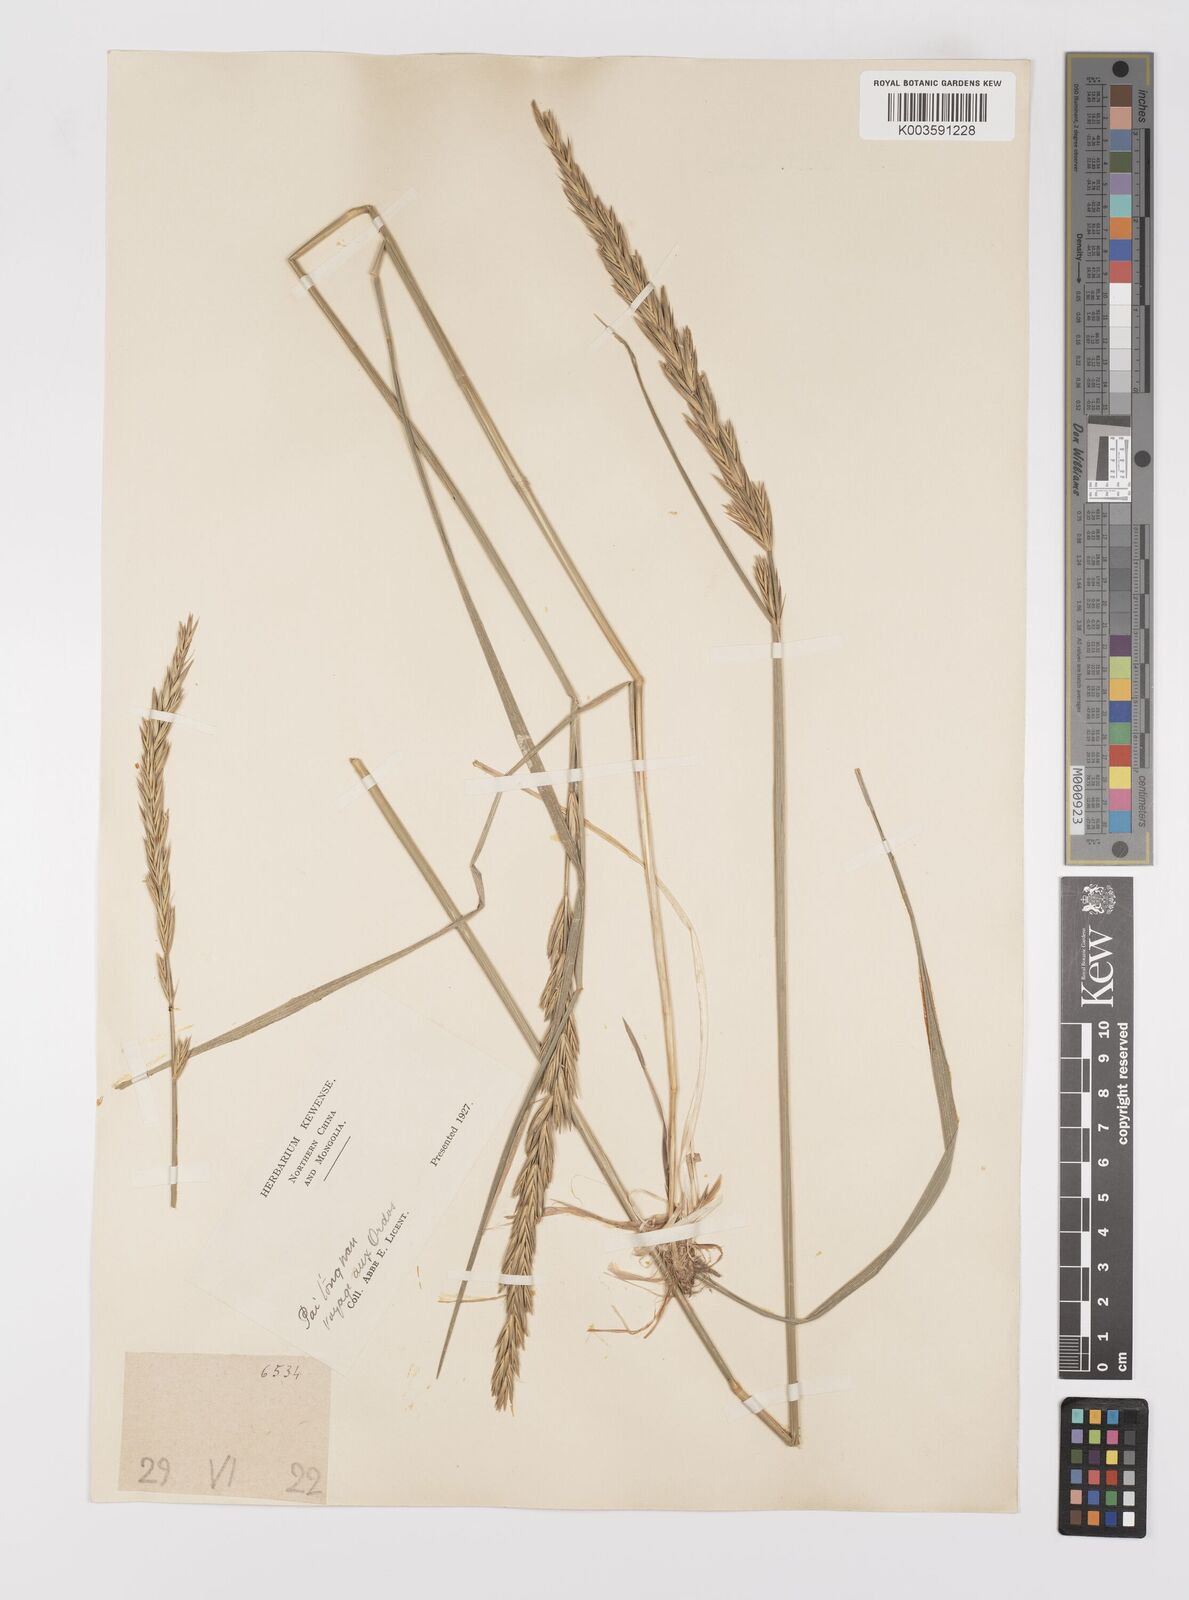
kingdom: Plantae
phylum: Tracheophyta
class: Liliopsida
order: Poales
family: Poaceae
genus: Leymus
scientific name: Leymus chinensis
